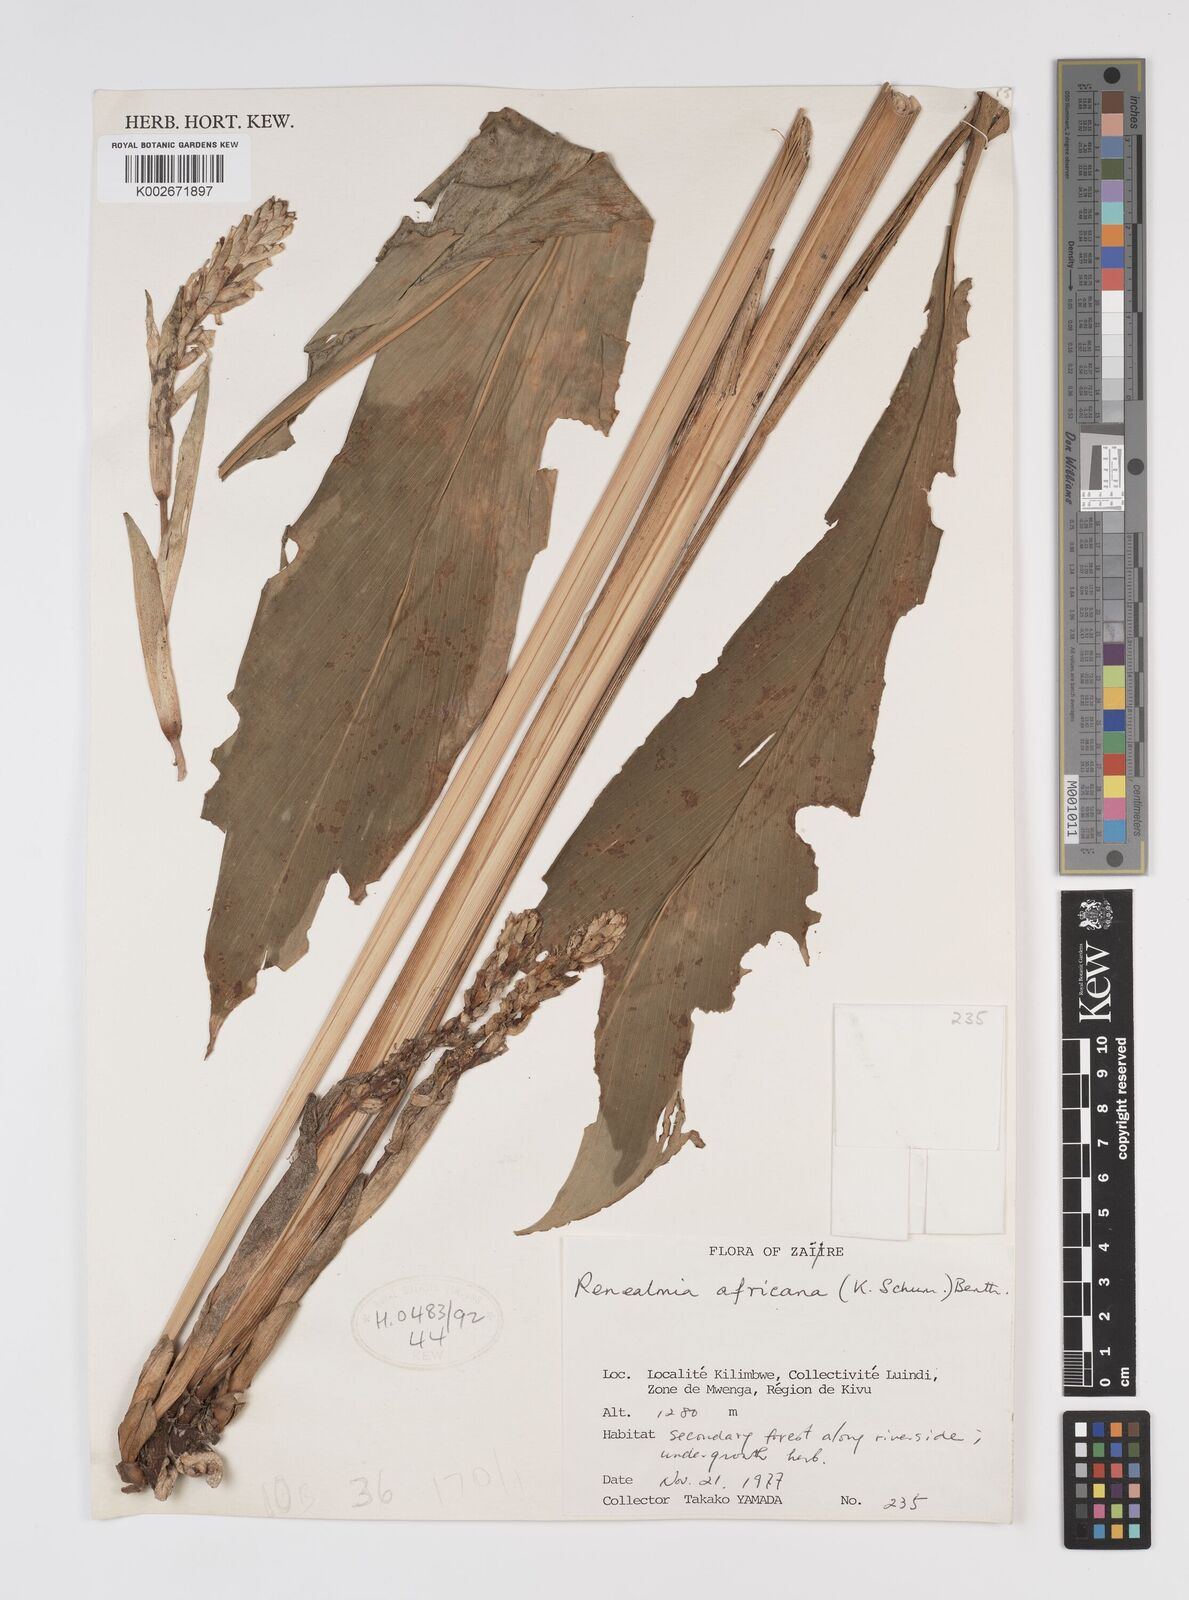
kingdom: Plantae
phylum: Tracheophyta
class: Liliopsida
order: Zingiberales
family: Zingiberaceae
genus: Renealmia
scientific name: Renealmia africana
